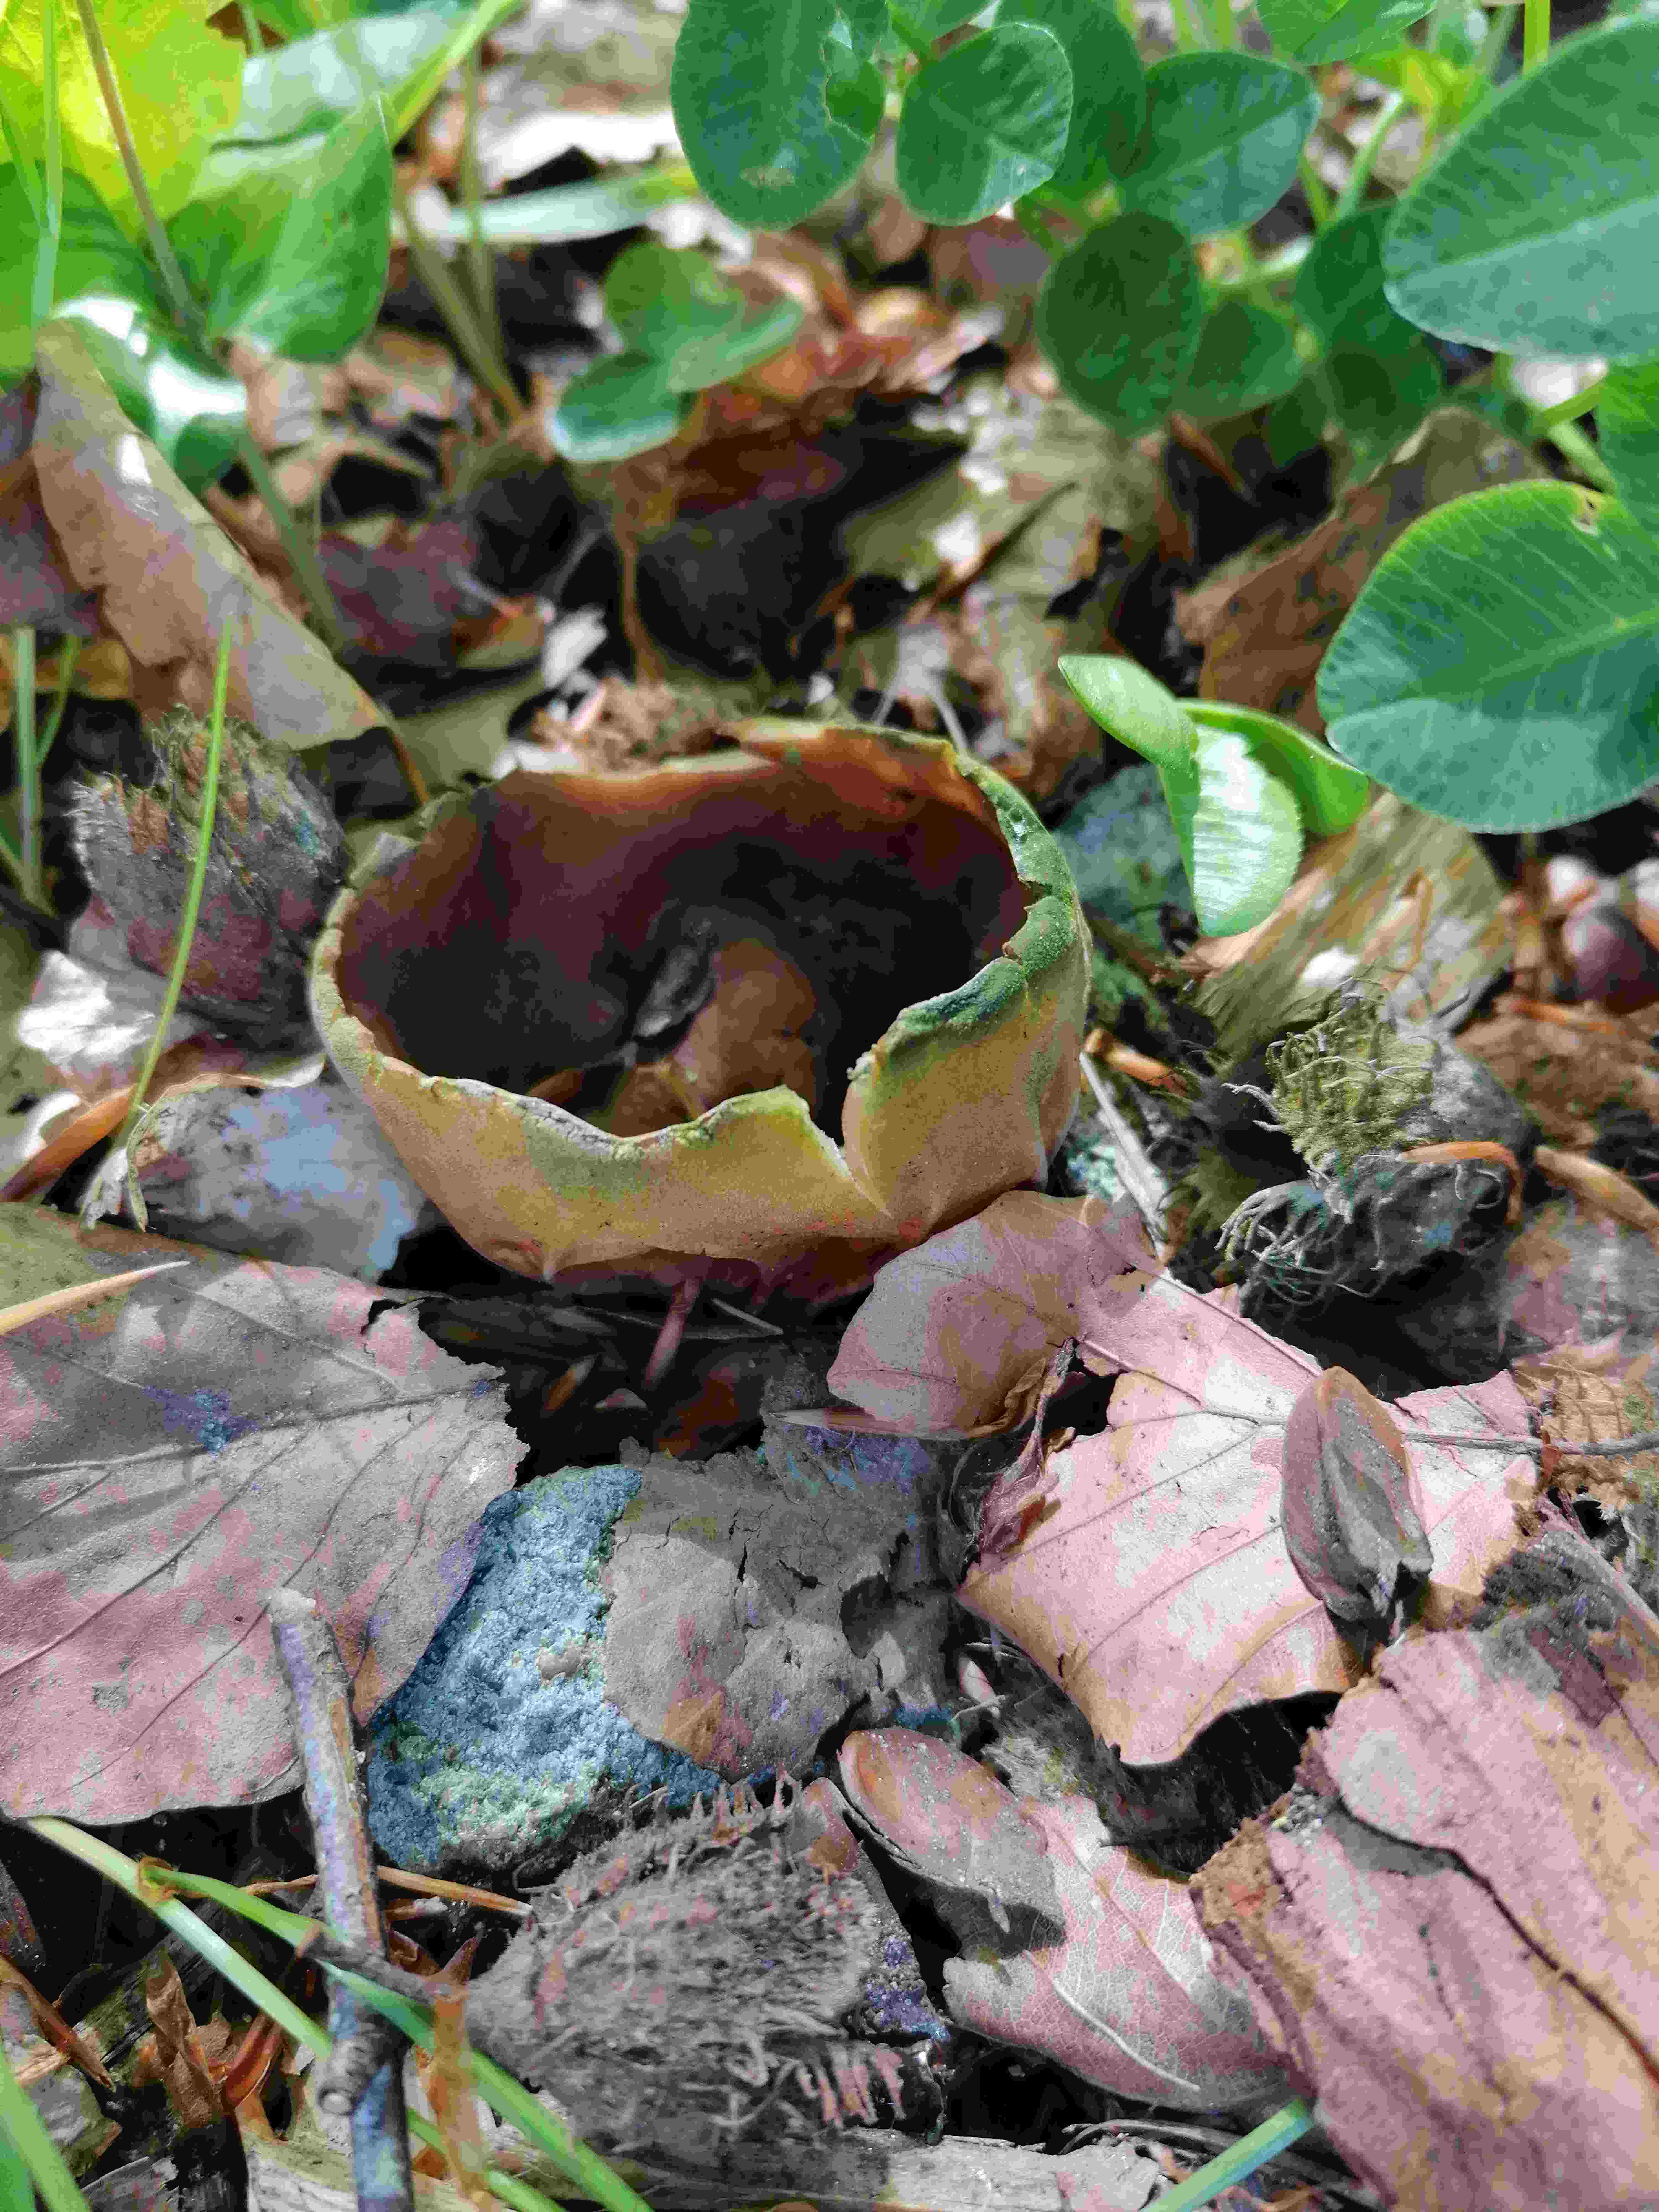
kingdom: Fungi
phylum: Ascomycota
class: Pezizomycetes
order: Pezizales
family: Helvellaceae
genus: Helvella
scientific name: Helvella acetabulum
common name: pokal-foldhat
